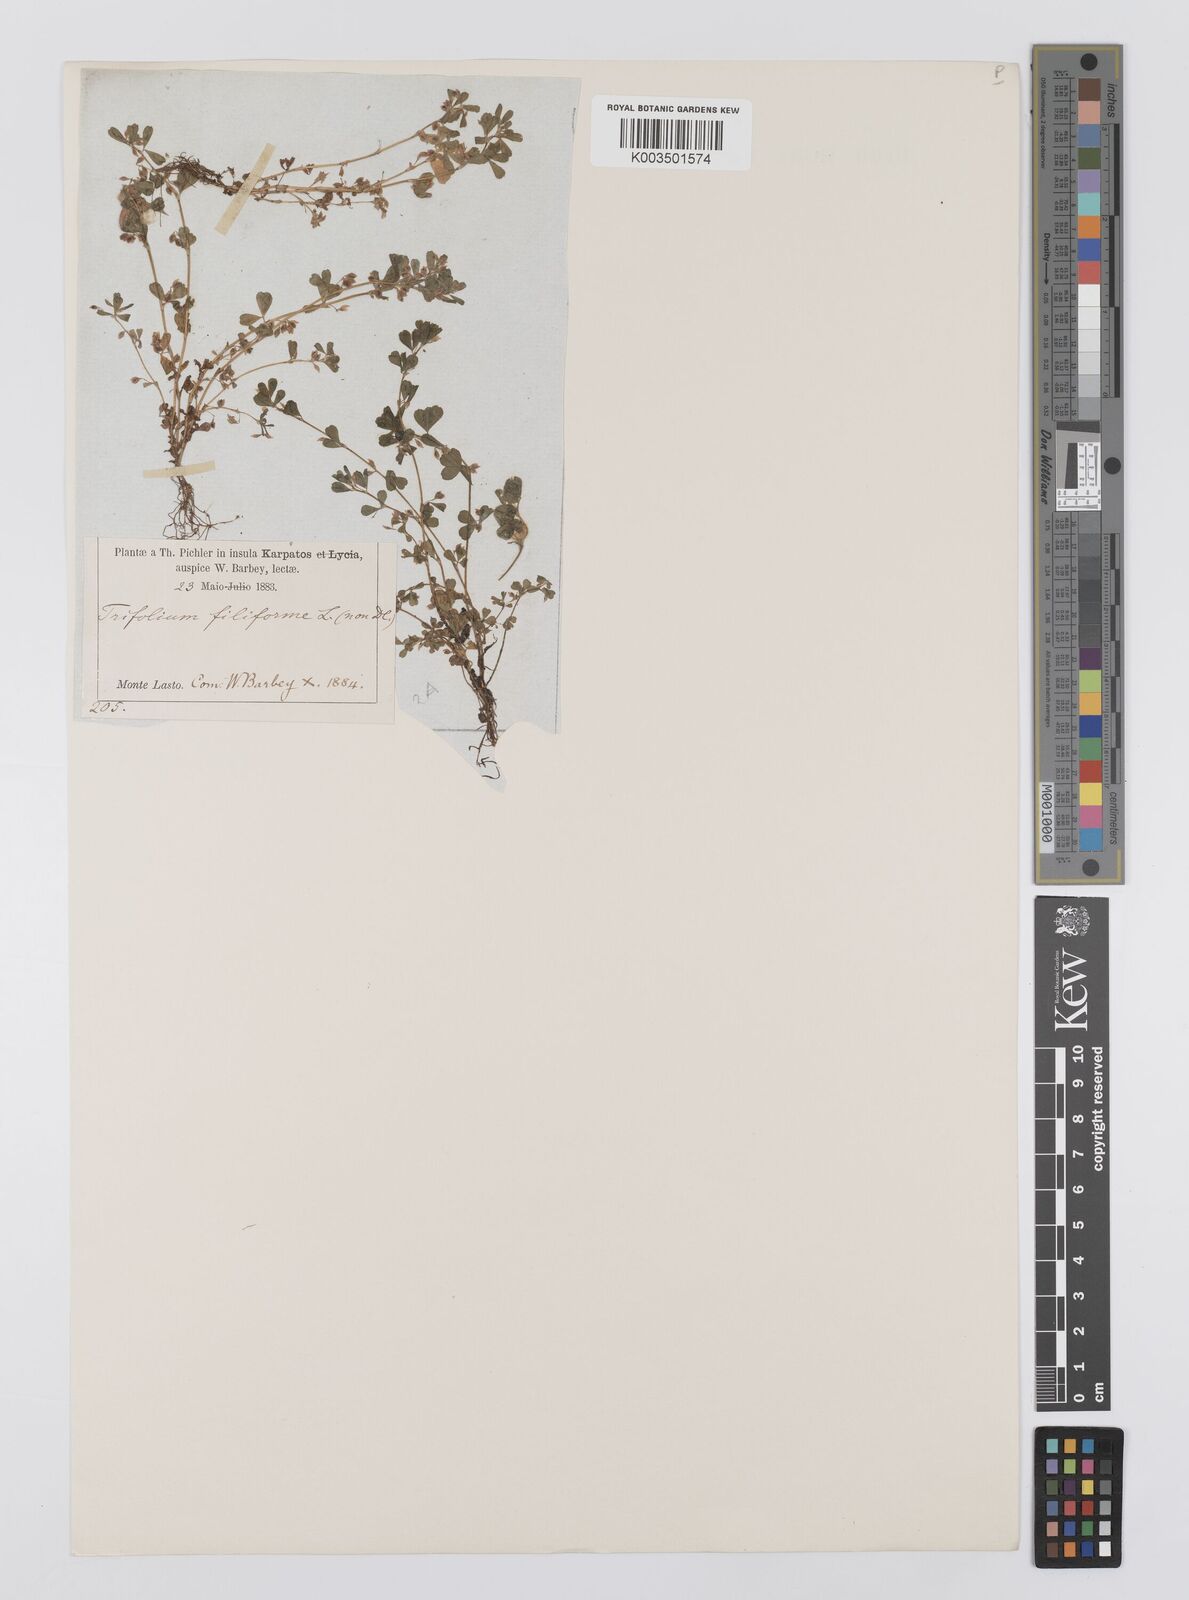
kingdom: Plantae
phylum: Tracheophyta
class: Magnoliopsida
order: Fabales
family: Fabaceae
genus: Trifolium
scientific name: Trifolium micranthum
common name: Slender trefoil
